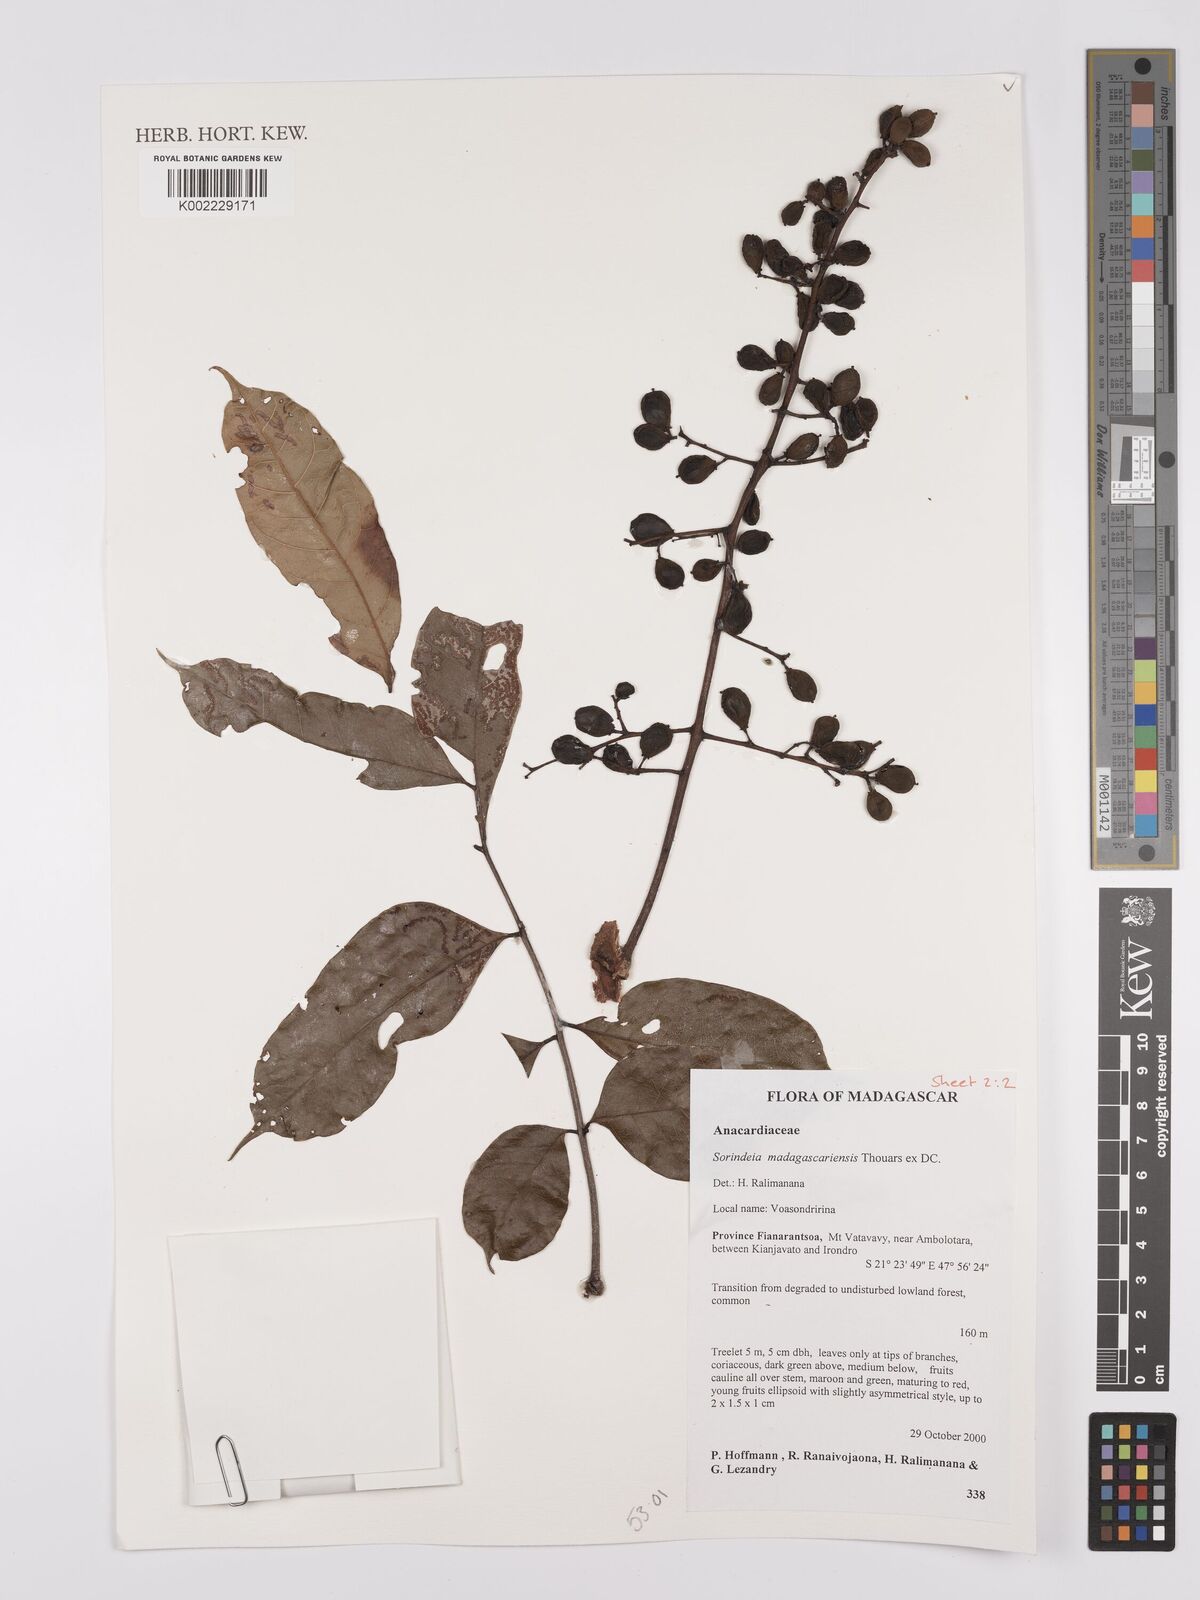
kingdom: Plantae
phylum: Tracheophyta
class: Magnoliopsida
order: Sapindales
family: Anacardiaceae
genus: Sorindeia
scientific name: Sorindeia madagascariensis
